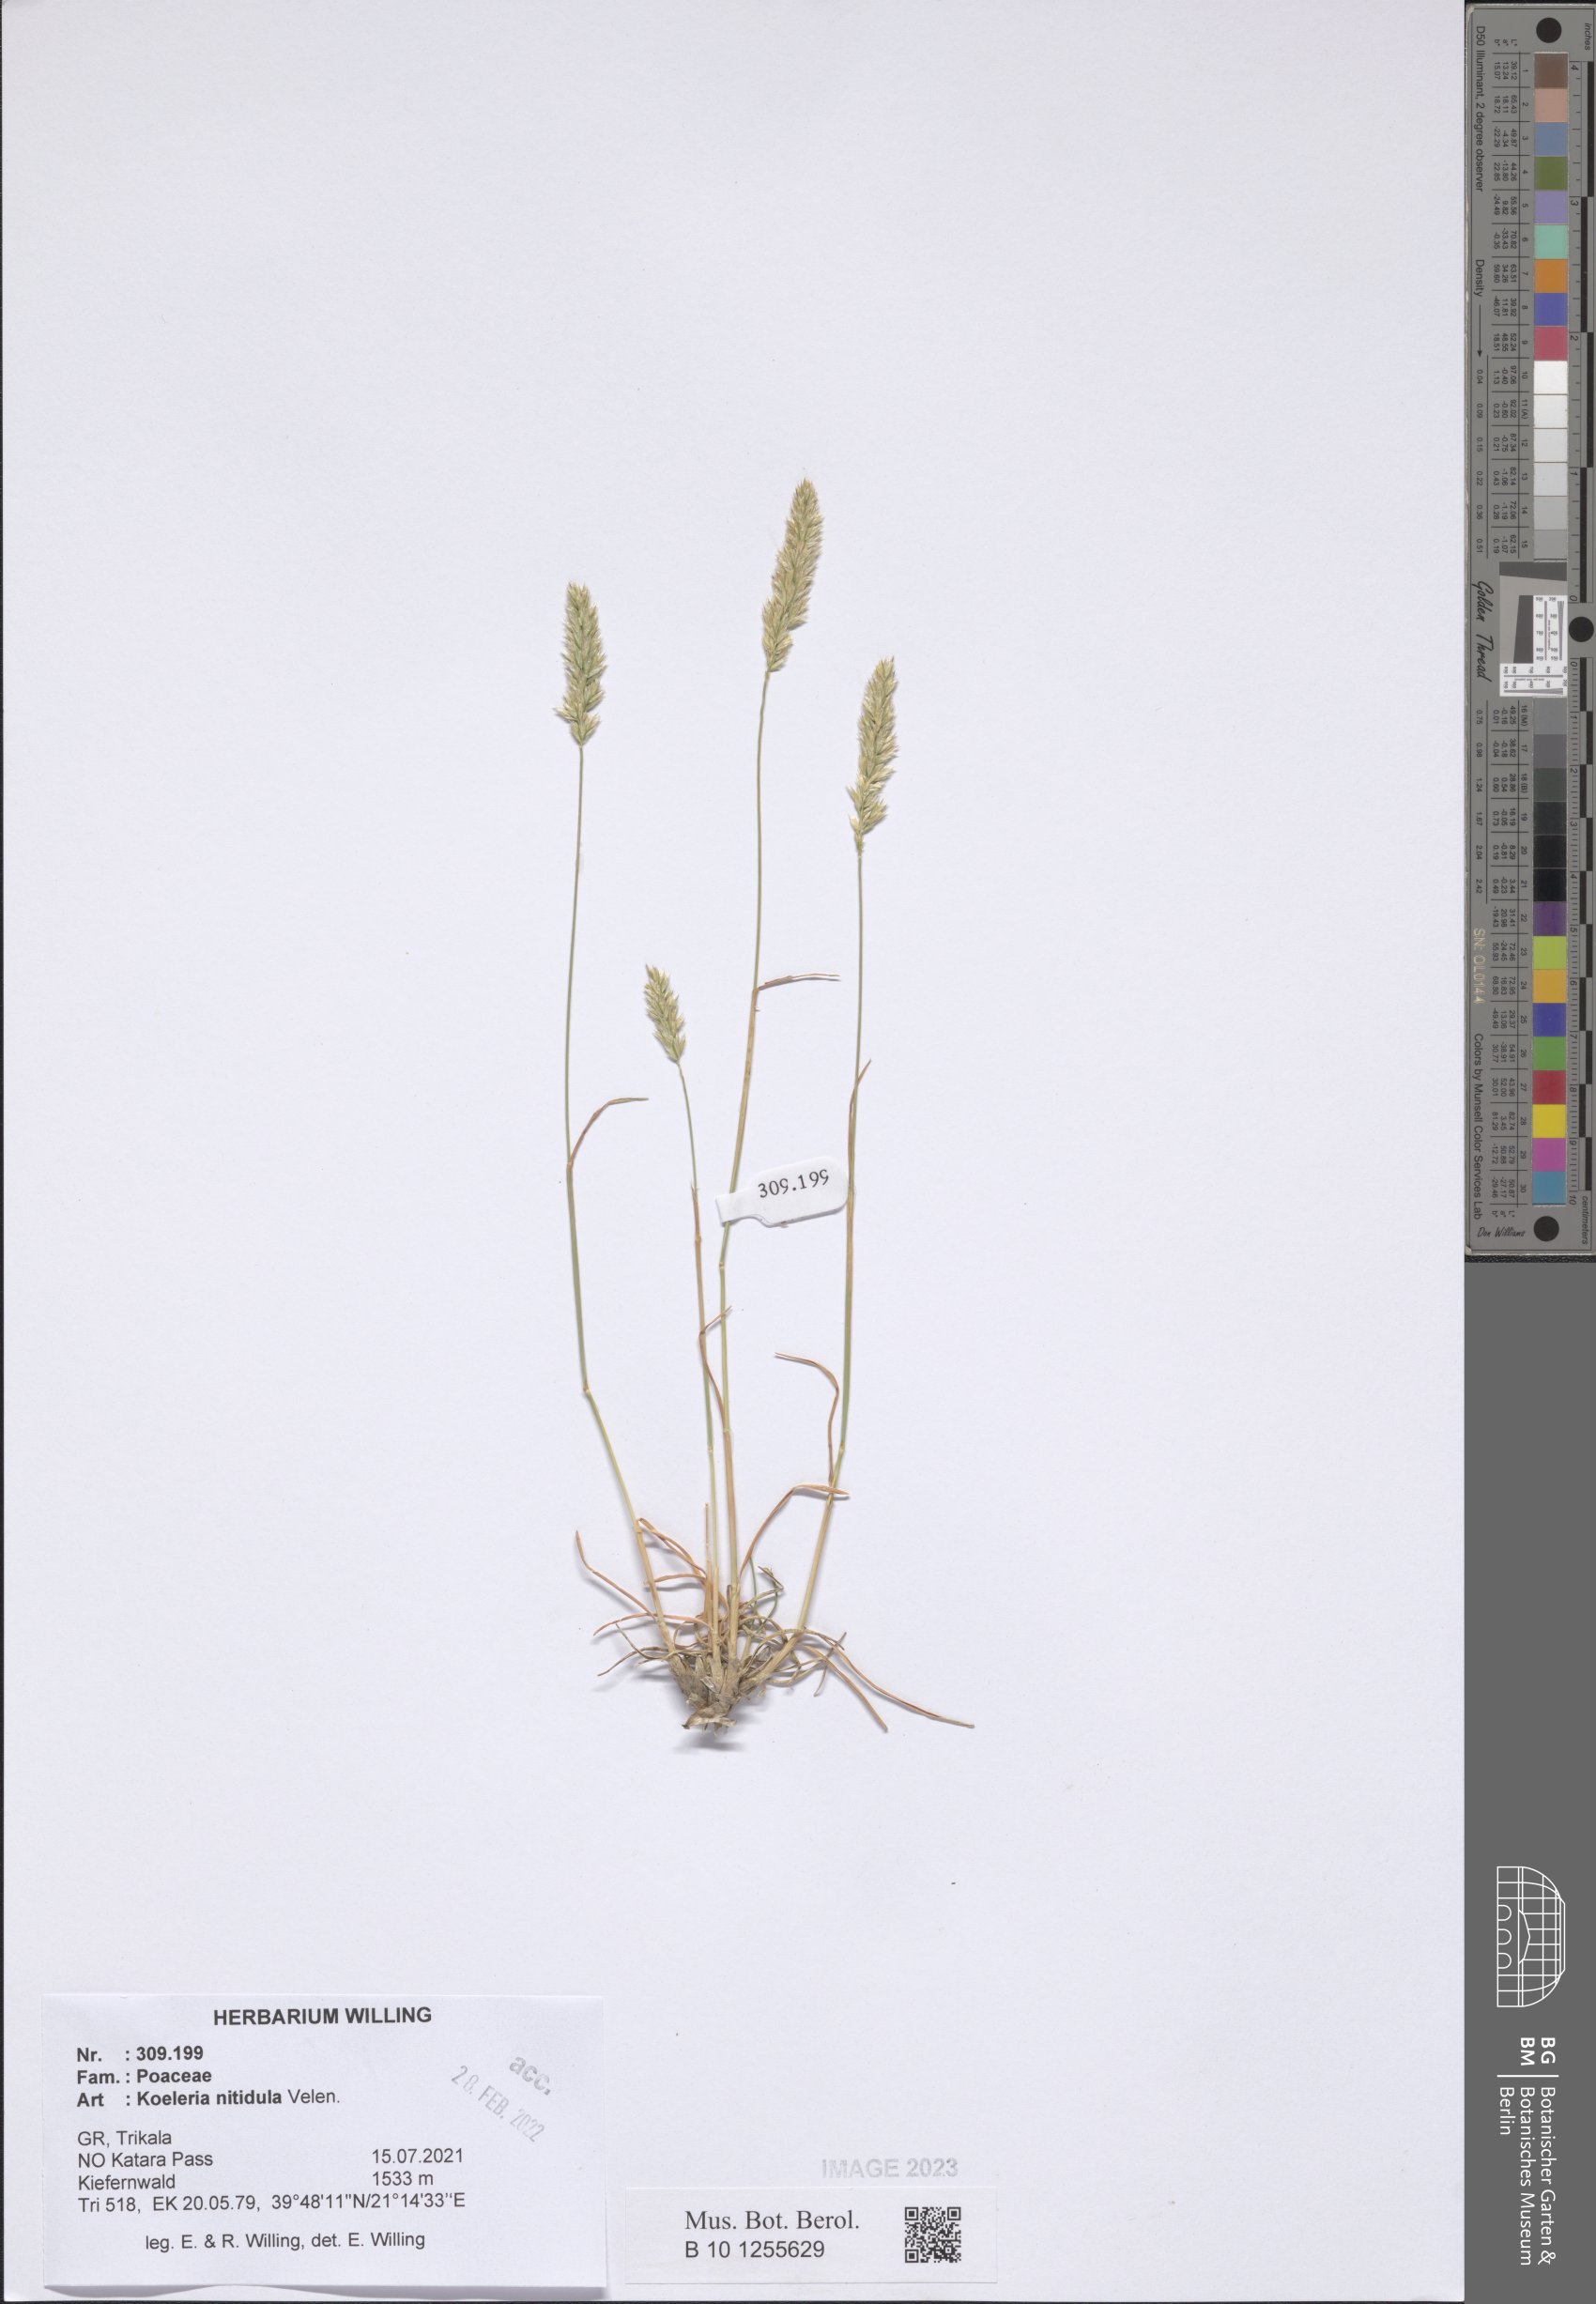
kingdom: Plantae
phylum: Tracheophyta
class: Liliopsida
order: Poales
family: Poaceae
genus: Koeleria
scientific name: Koeleria nitidula
